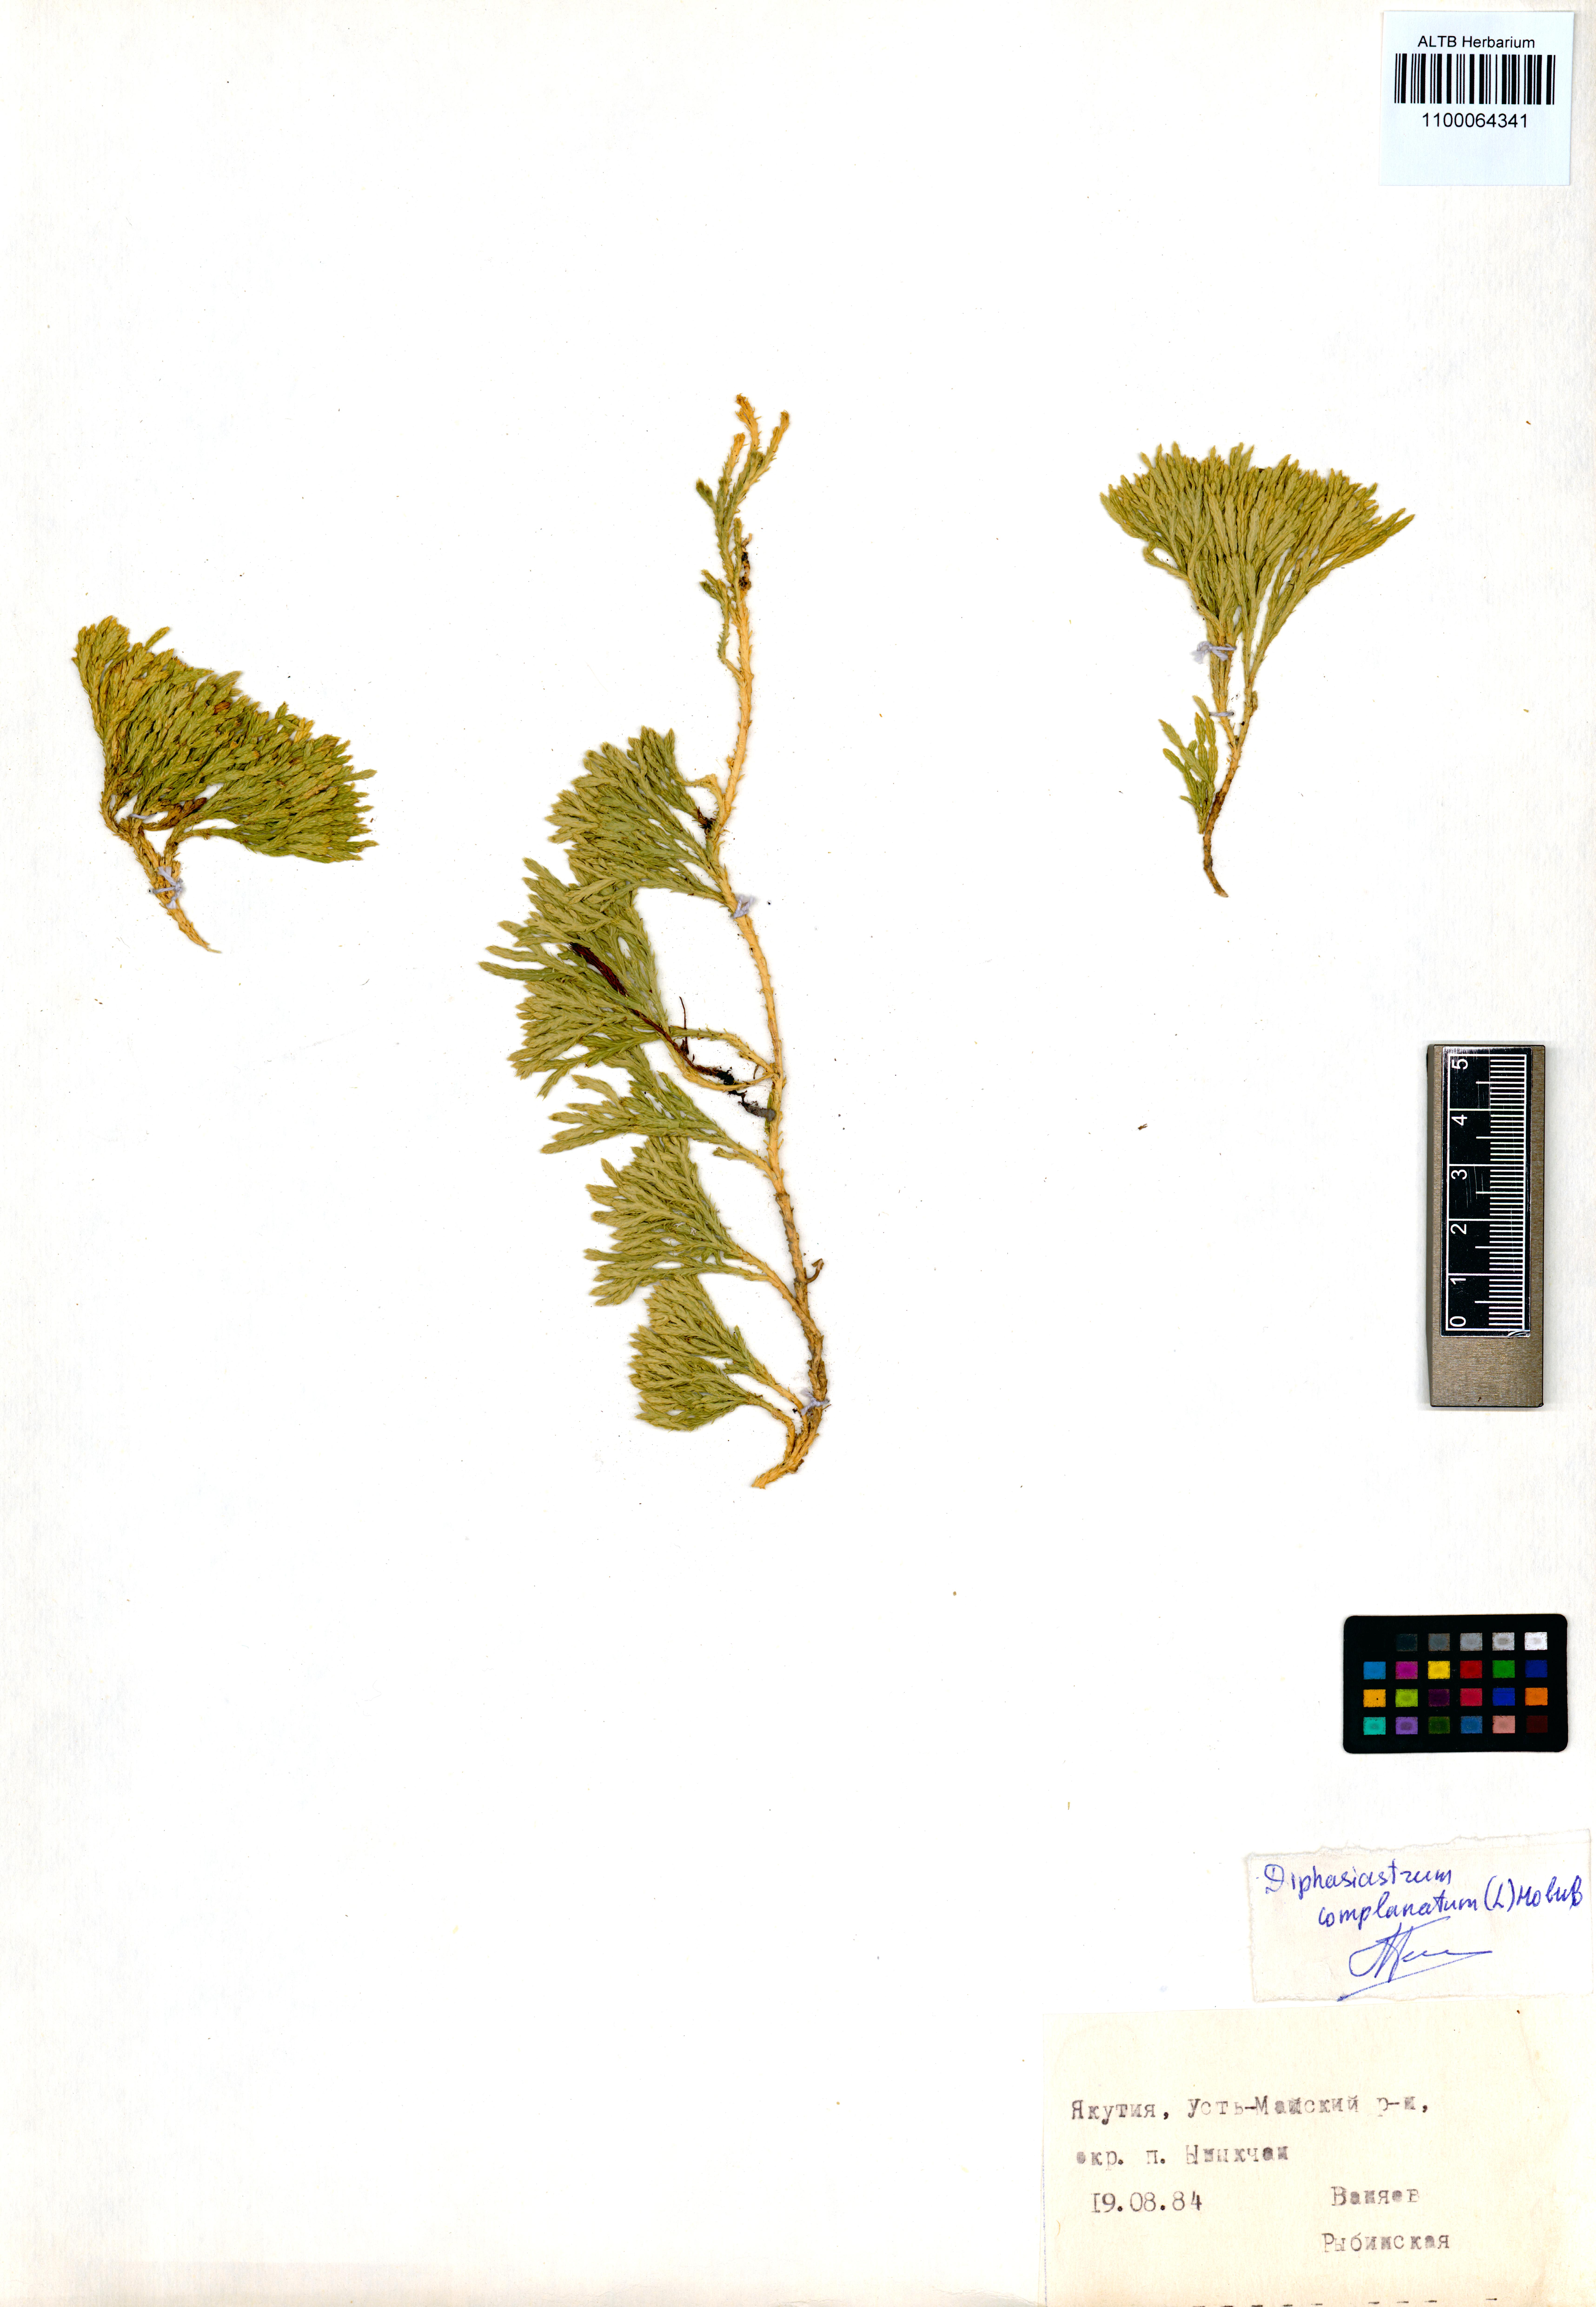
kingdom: Plantae
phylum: Tracheophyta
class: Lycopodiopsida
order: Lycopodiales
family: Lycopodiaceae
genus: Diphasiastrum
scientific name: Diphasiastrum complanatum
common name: Northern running-pine
